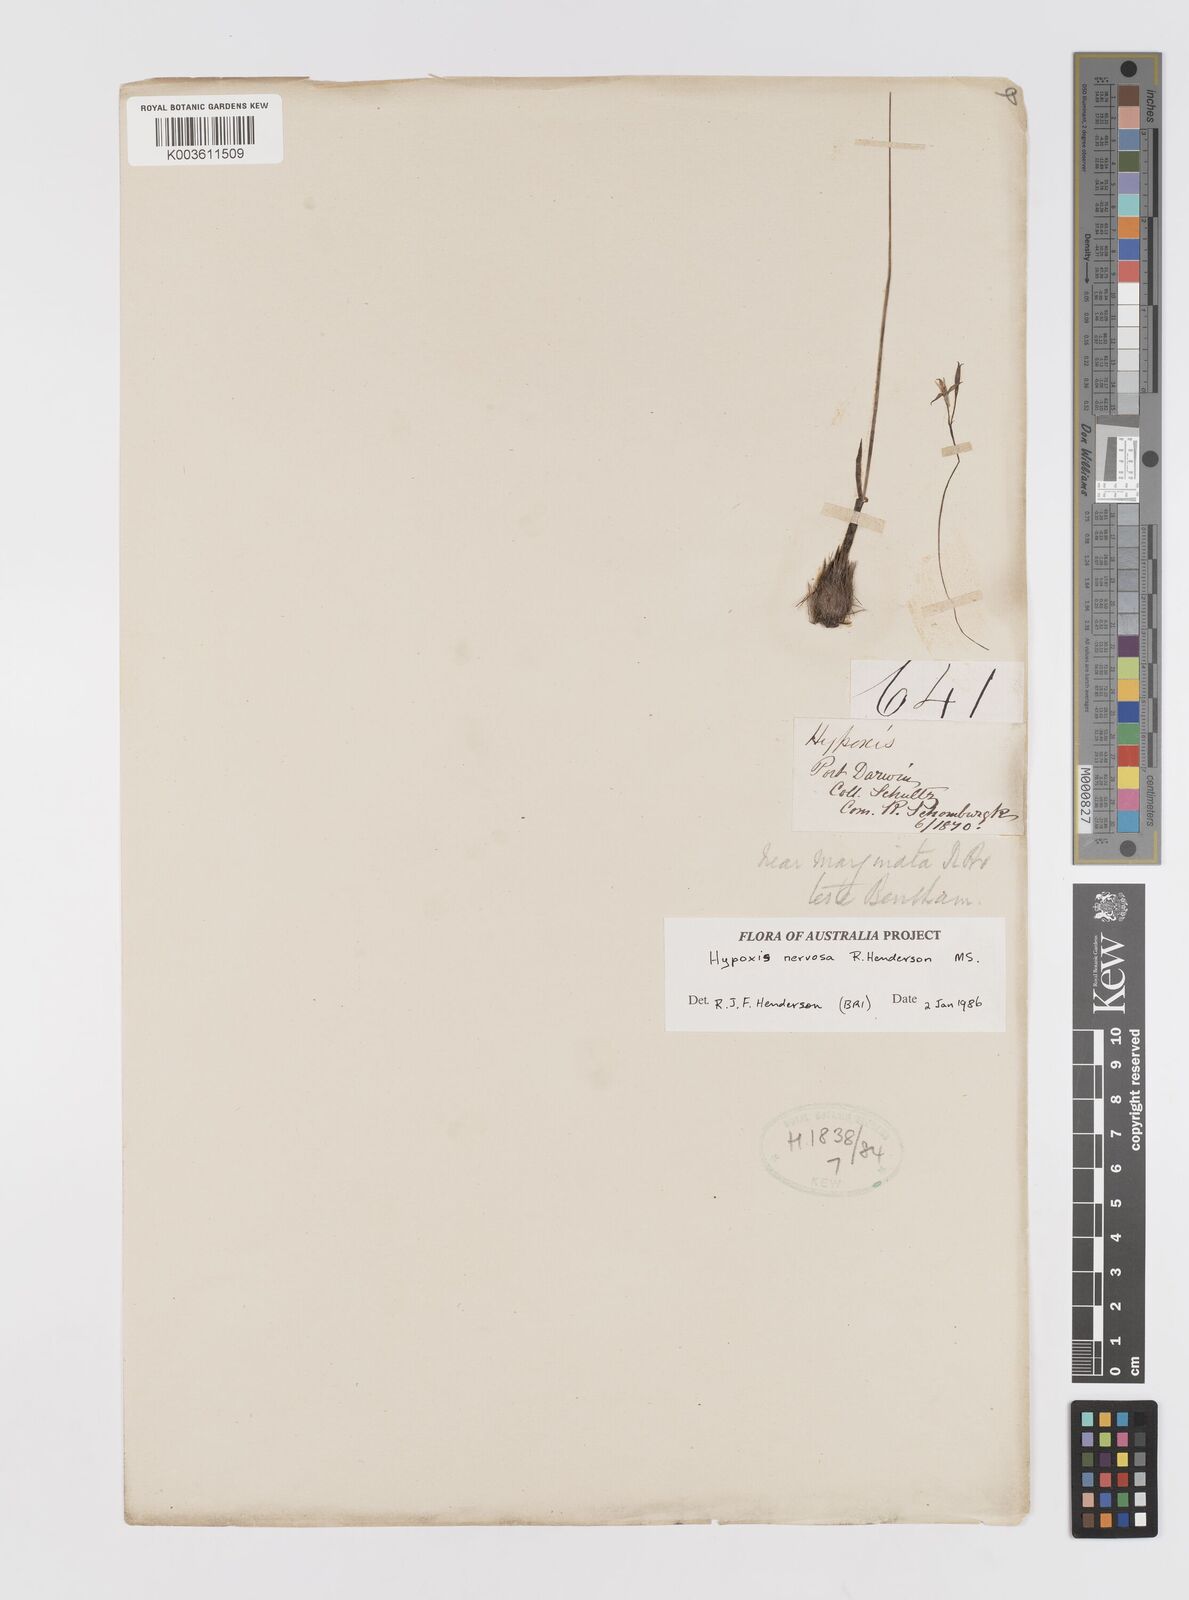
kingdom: Plantae
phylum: Tracheophyta
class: Liliopsida
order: Asparagales
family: Hypoxidaceae
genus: Hypoxis
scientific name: Hypoxis nervosa
